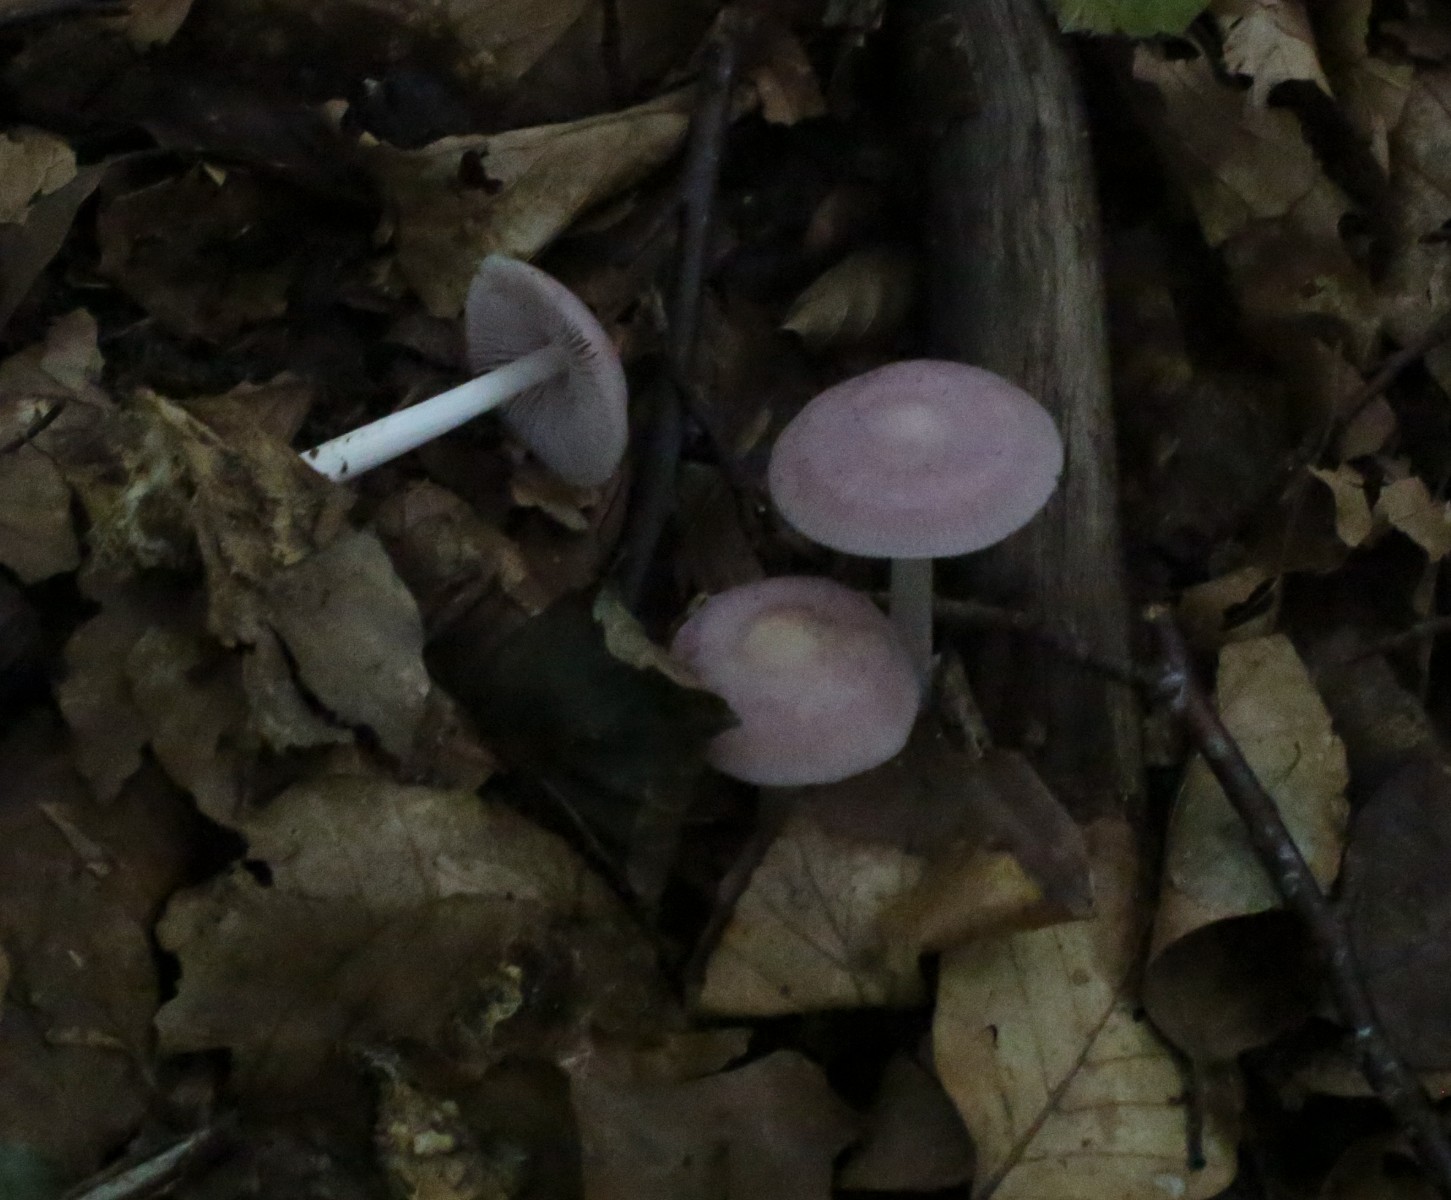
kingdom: Fungi
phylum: Basidiomycota
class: Agaricomycetes
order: Agaricales
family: Mycenaceae
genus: Mycena
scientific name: Mycena rosea
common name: rosa huesvamp
